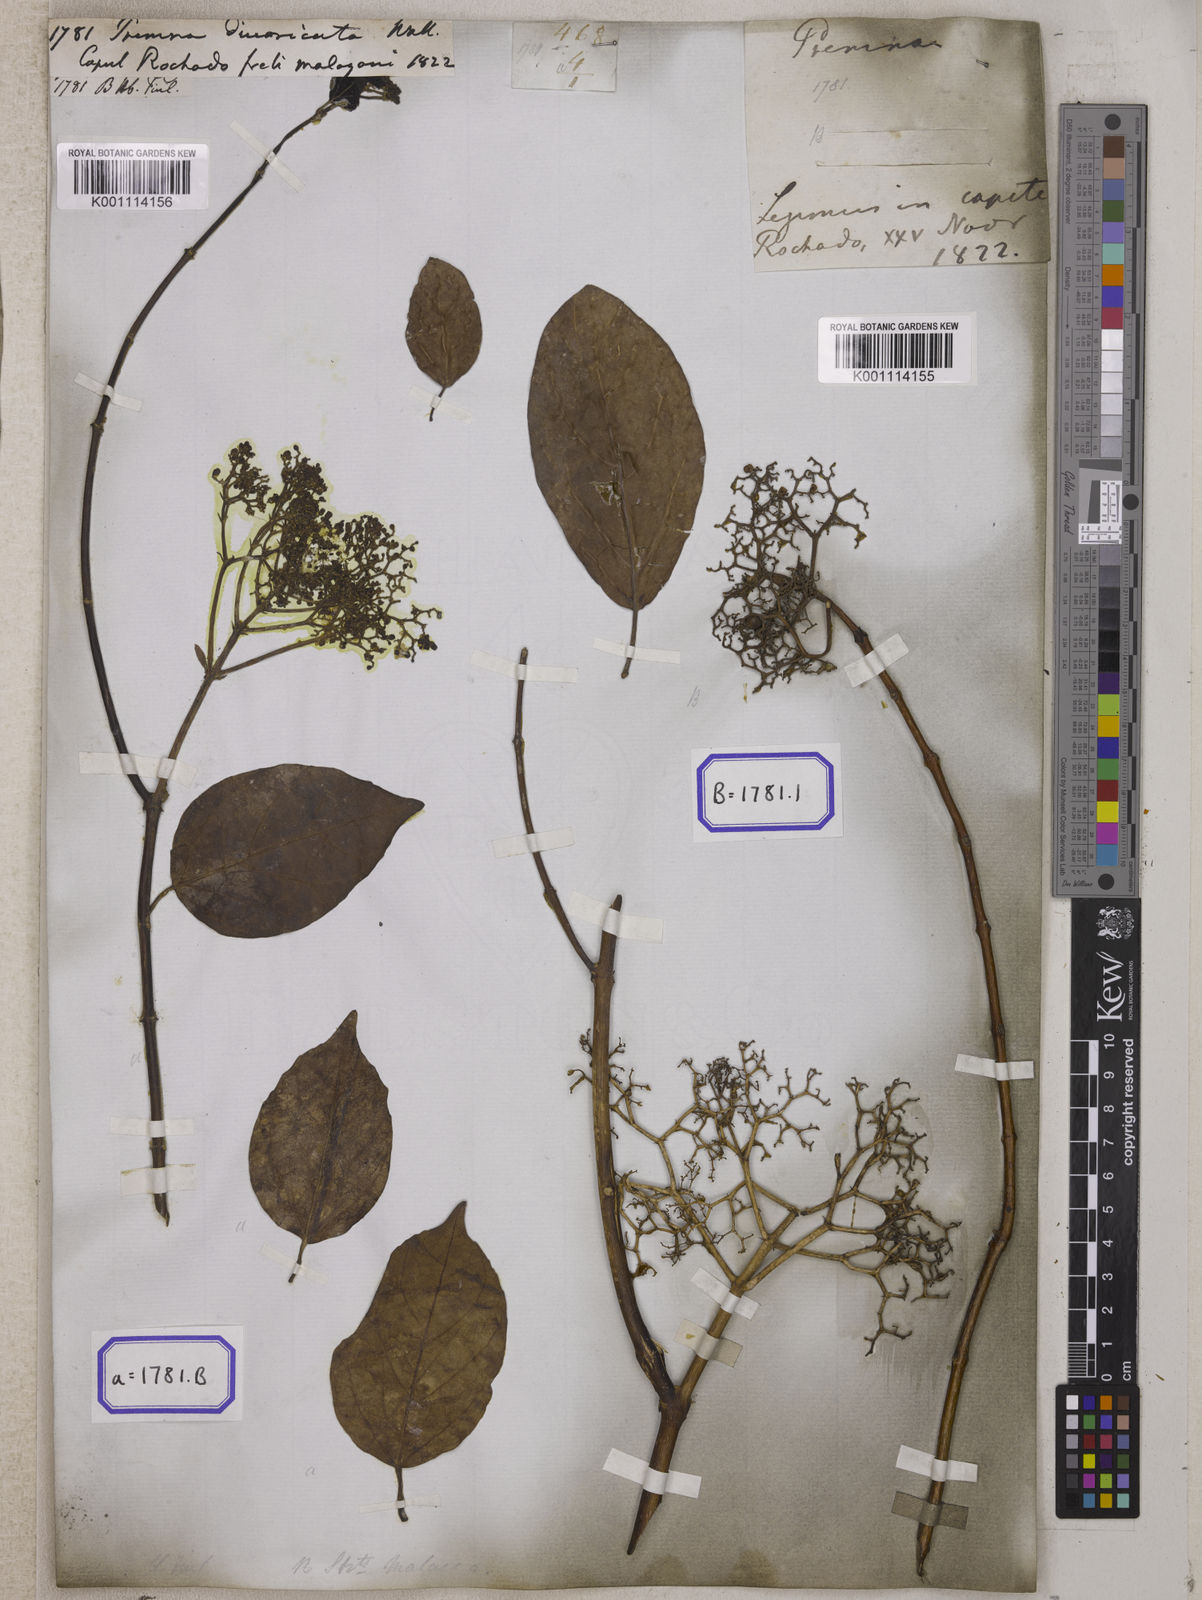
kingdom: Plantae
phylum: Tracheophyta
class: Magnoliopsida
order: Lamiales
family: Lamiaceae
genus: Premna
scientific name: Premna
